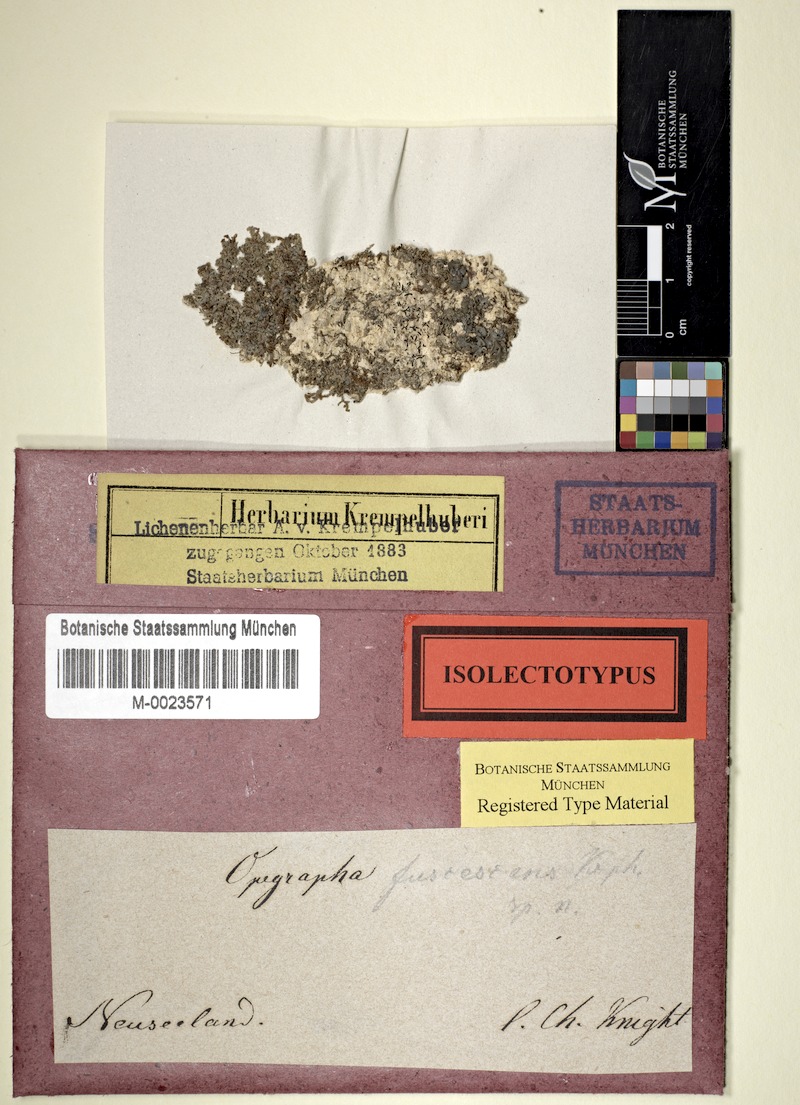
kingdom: Fungi
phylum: Ascomycota
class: Arthoniomycetes
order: Arthoniales
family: Opegraphaceae
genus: Opegrapha
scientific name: Opegrapha agelaeoides
